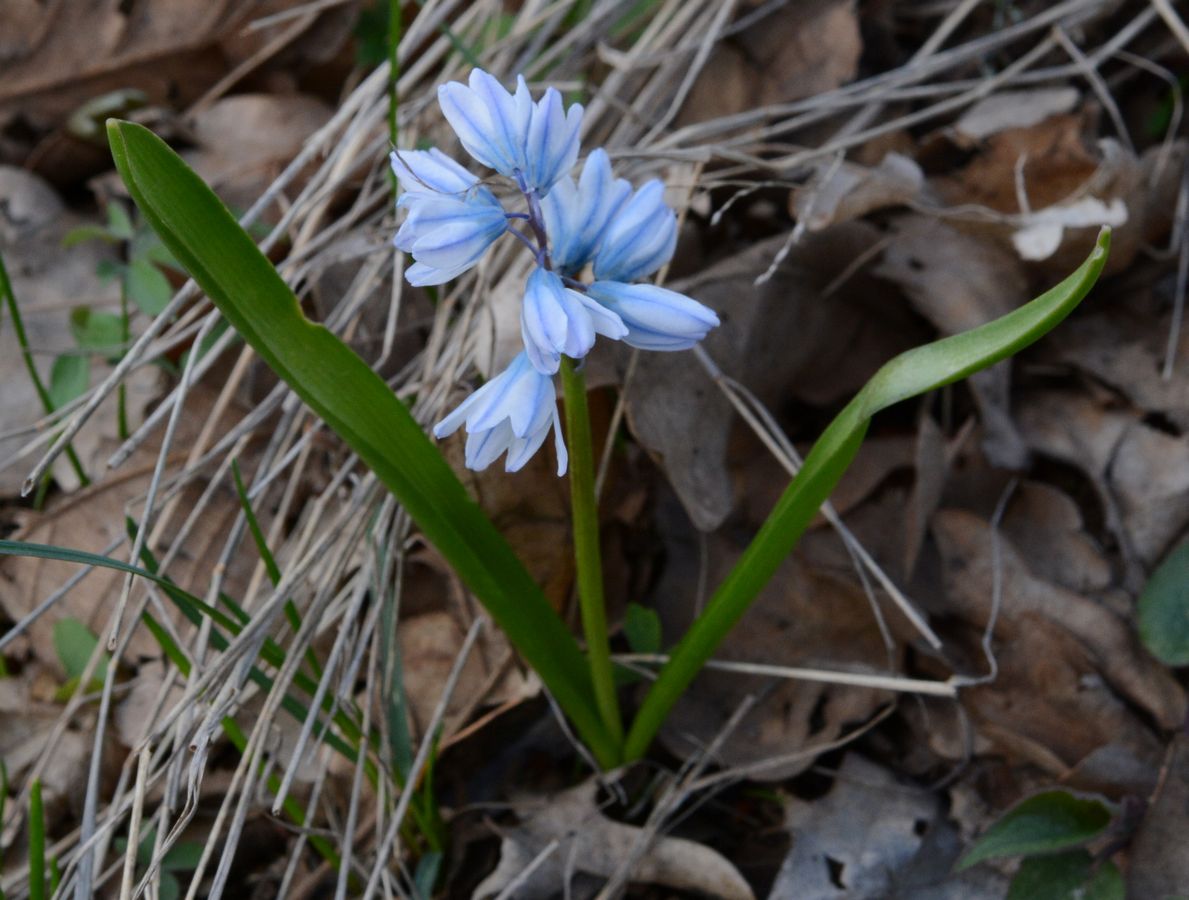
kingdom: Plantae
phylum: Tracheophyta
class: Liliopsida
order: Asparagales
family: Asparagaceae
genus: Puschkinia
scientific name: Puschkinia scilloides
